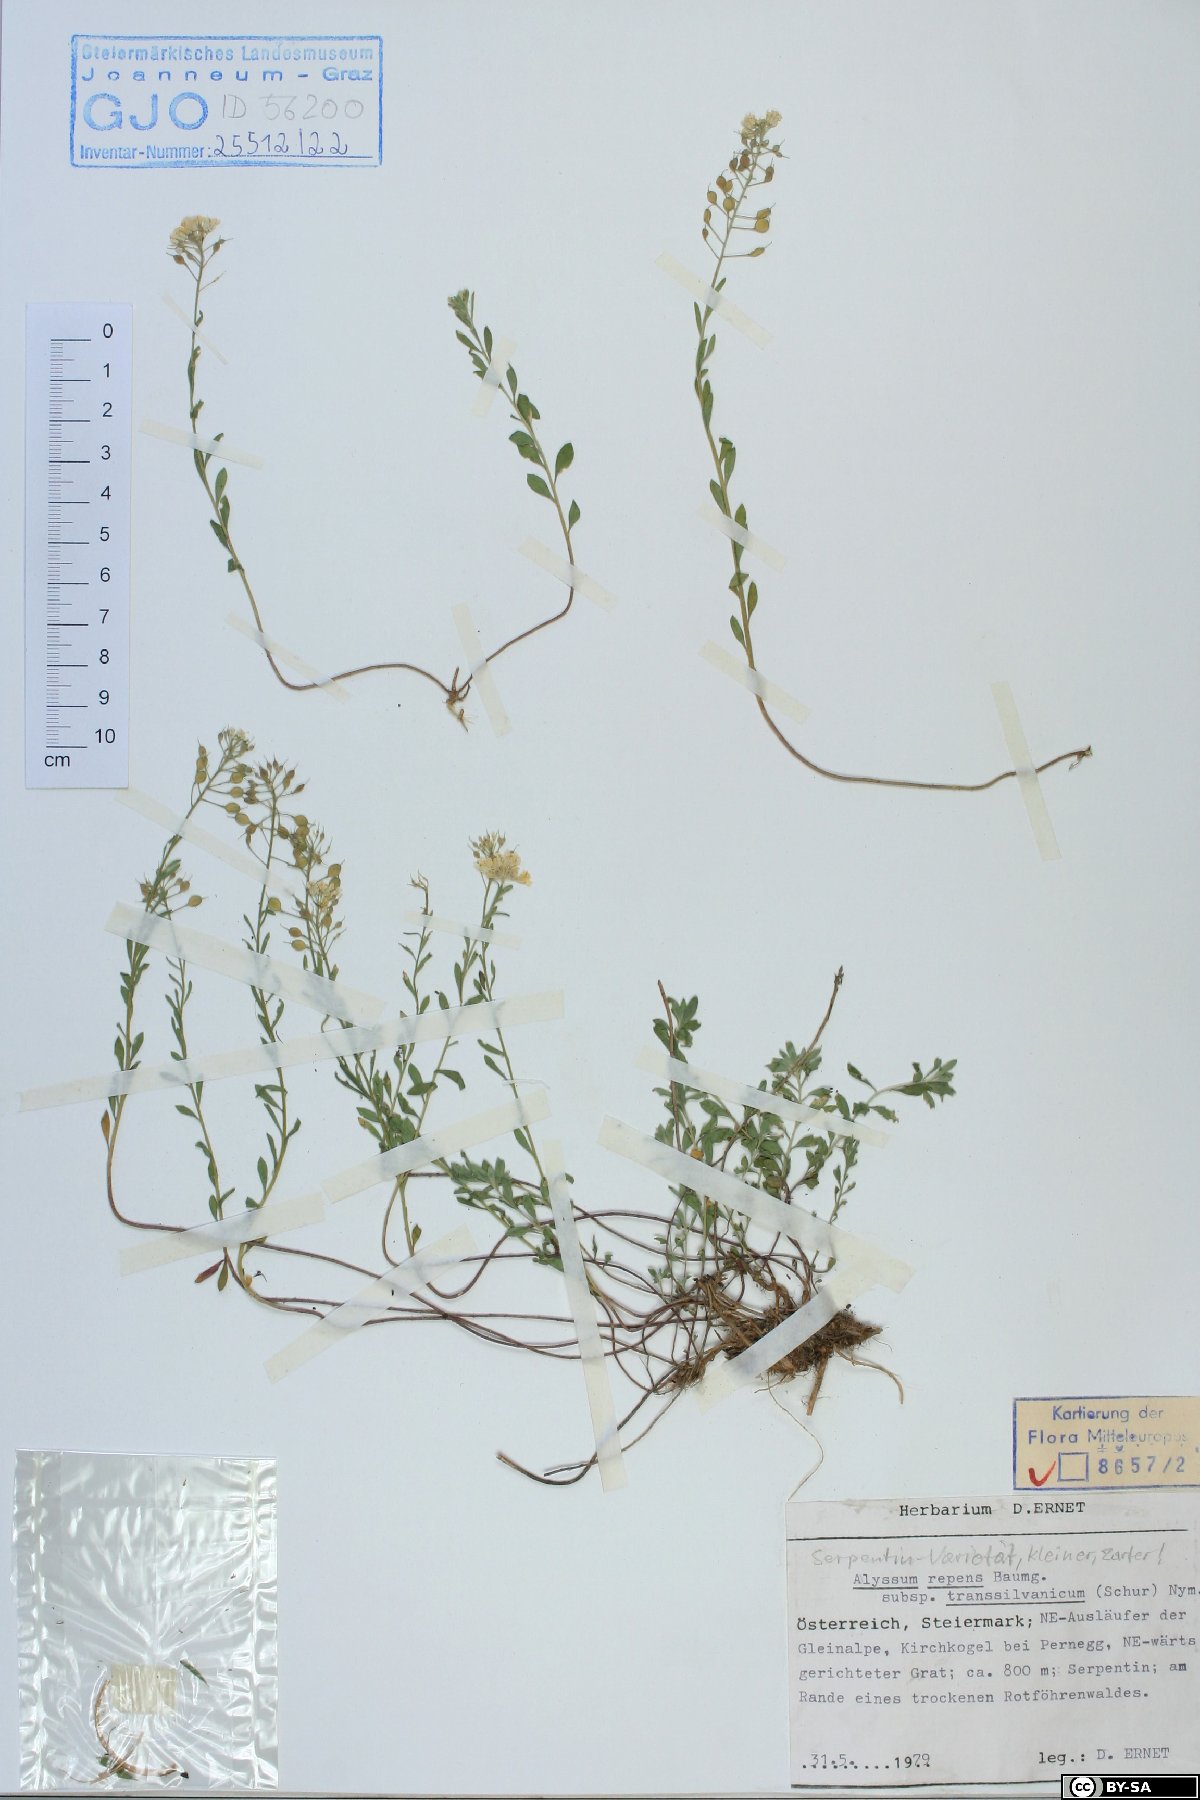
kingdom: Plantae
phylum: Tracheophyta
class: Magnoliopsida
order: Brassicales
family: Brassicaceae
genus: Alyssum
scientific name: Alyssum repens
